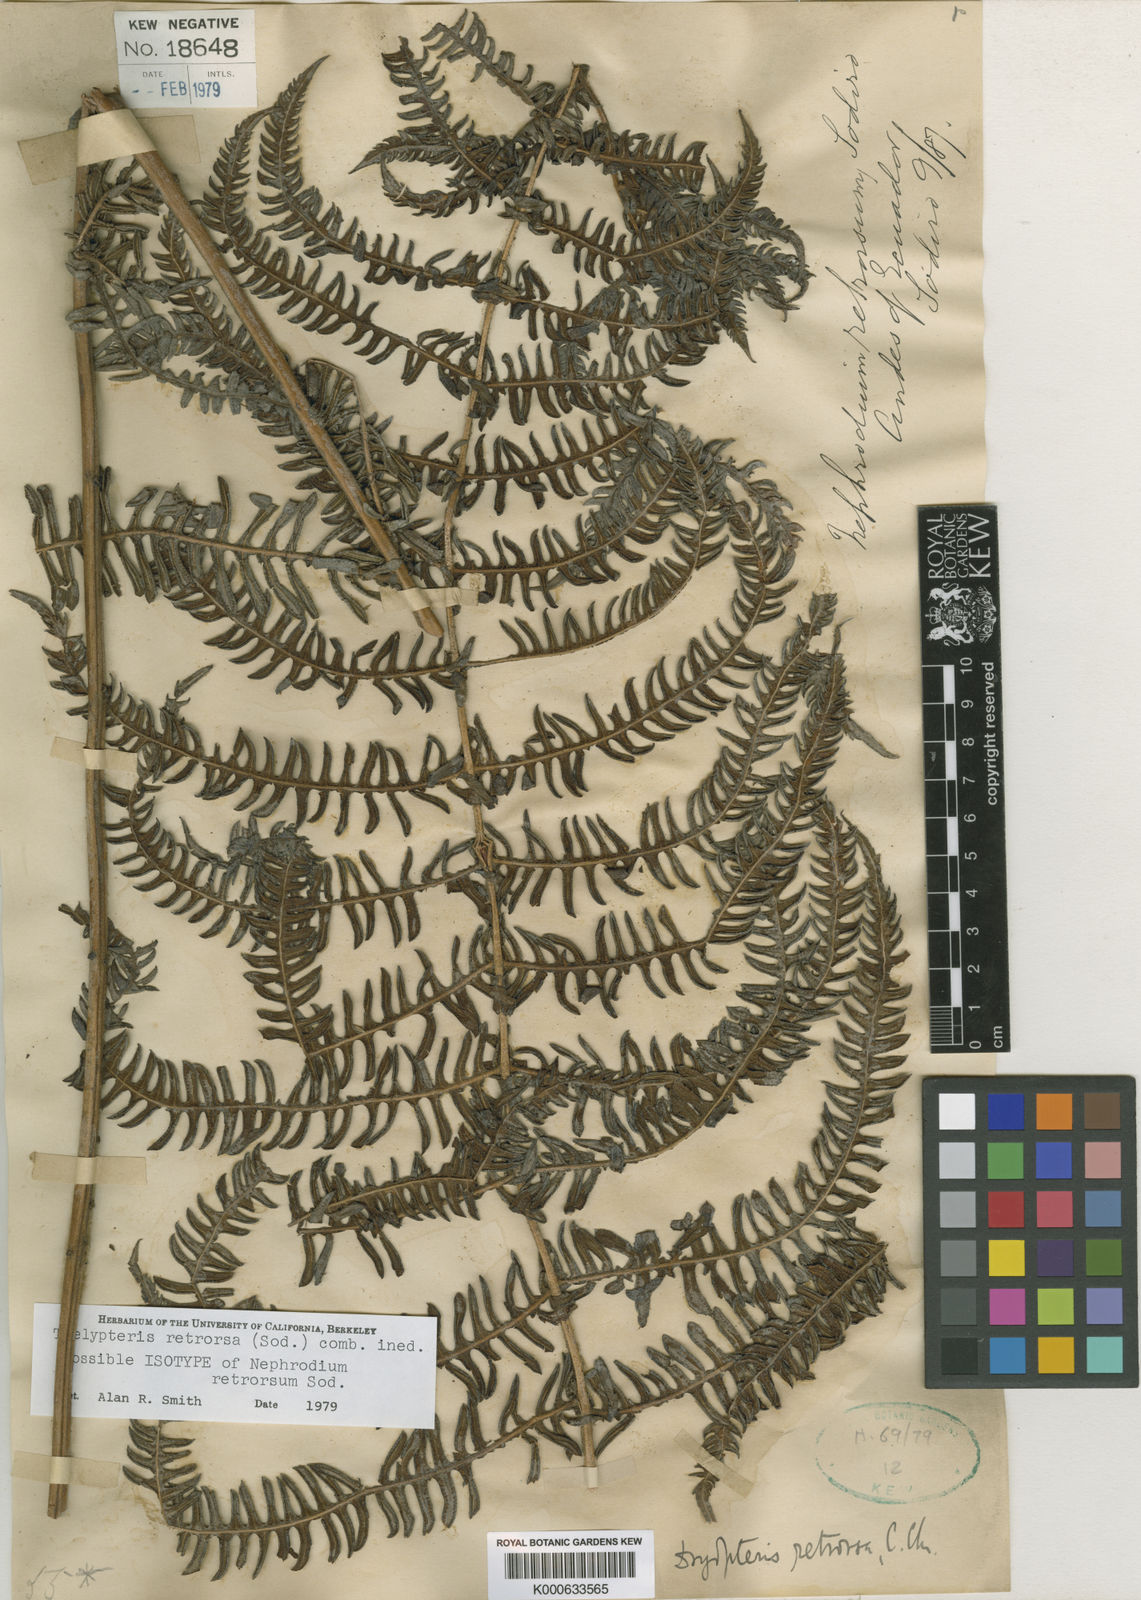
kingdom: Plantae
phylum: Tracheophyta
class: Polypodiopsida
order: Polypodiales
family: Thelypteridaceae
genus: Amauropelta
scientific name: Amauropelta pilosohispida
